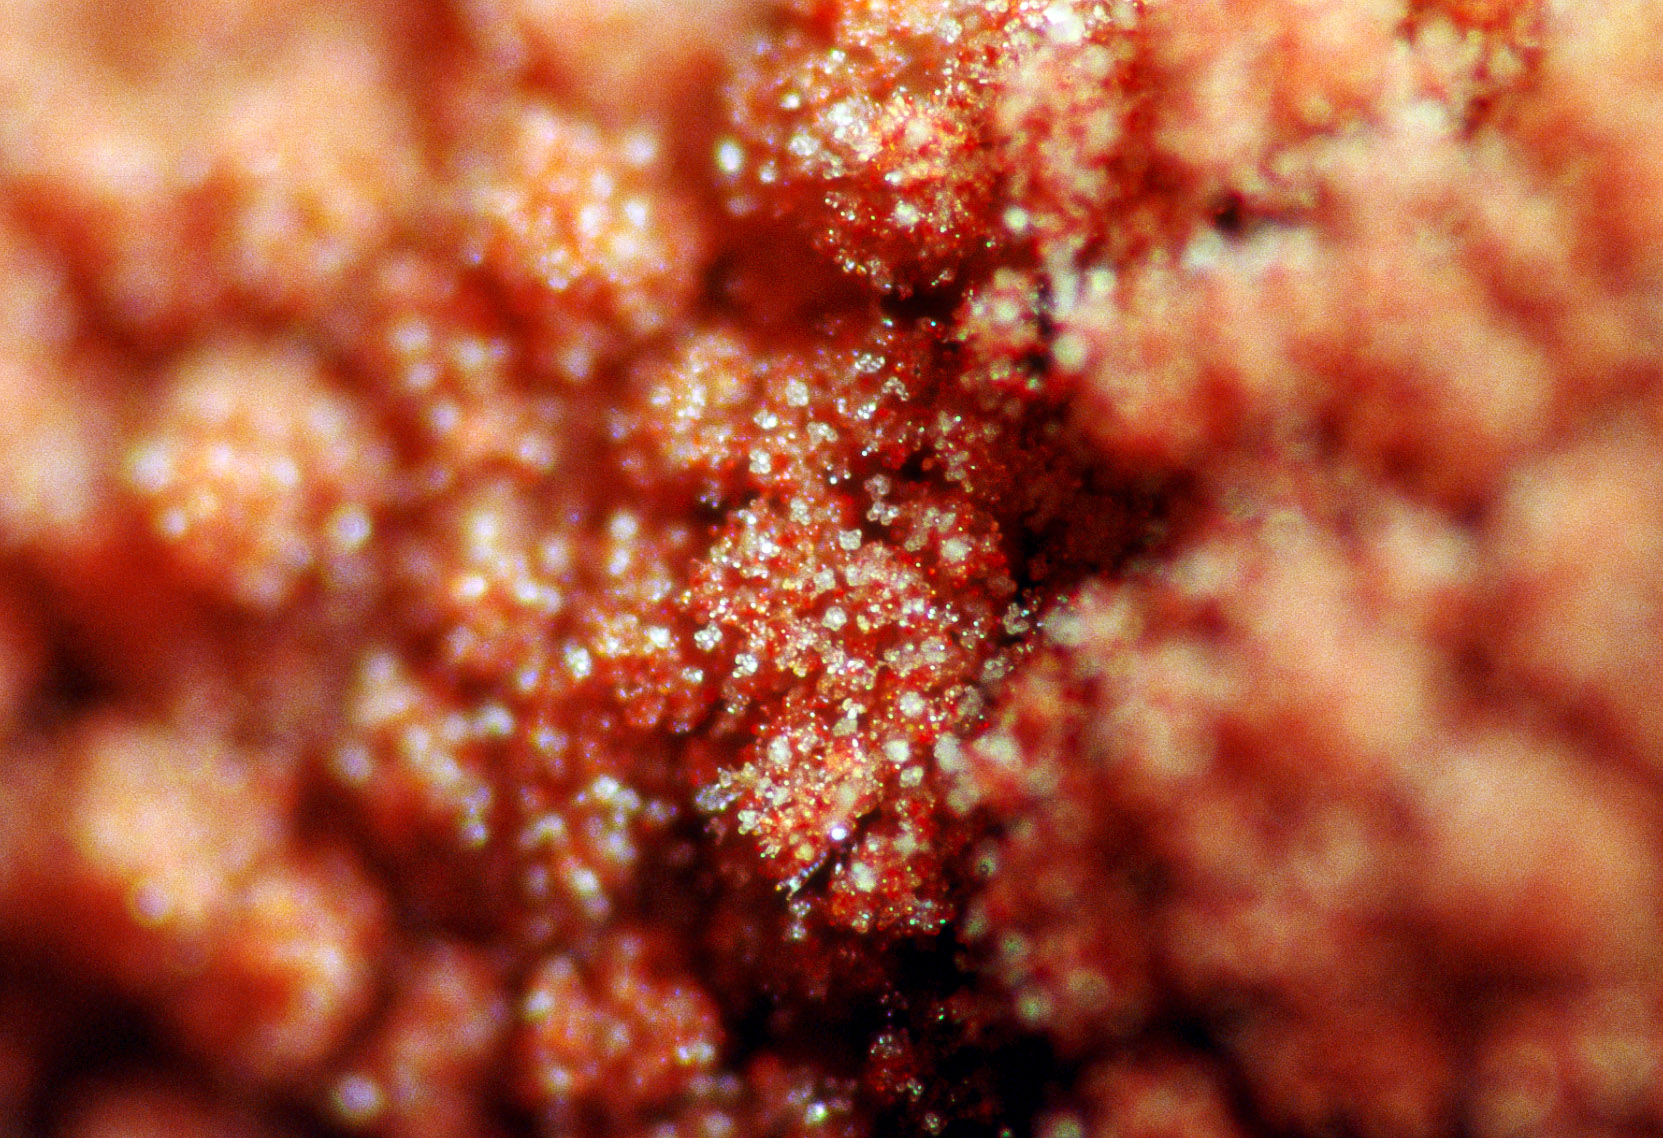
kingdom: Fungi
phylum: Basidiomycota
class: Agaricomycetes
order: Thelephorales
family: Thelephoraceae
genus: Tomentella
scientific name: Tomentella lateritia
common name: teglrød frynsehinde
